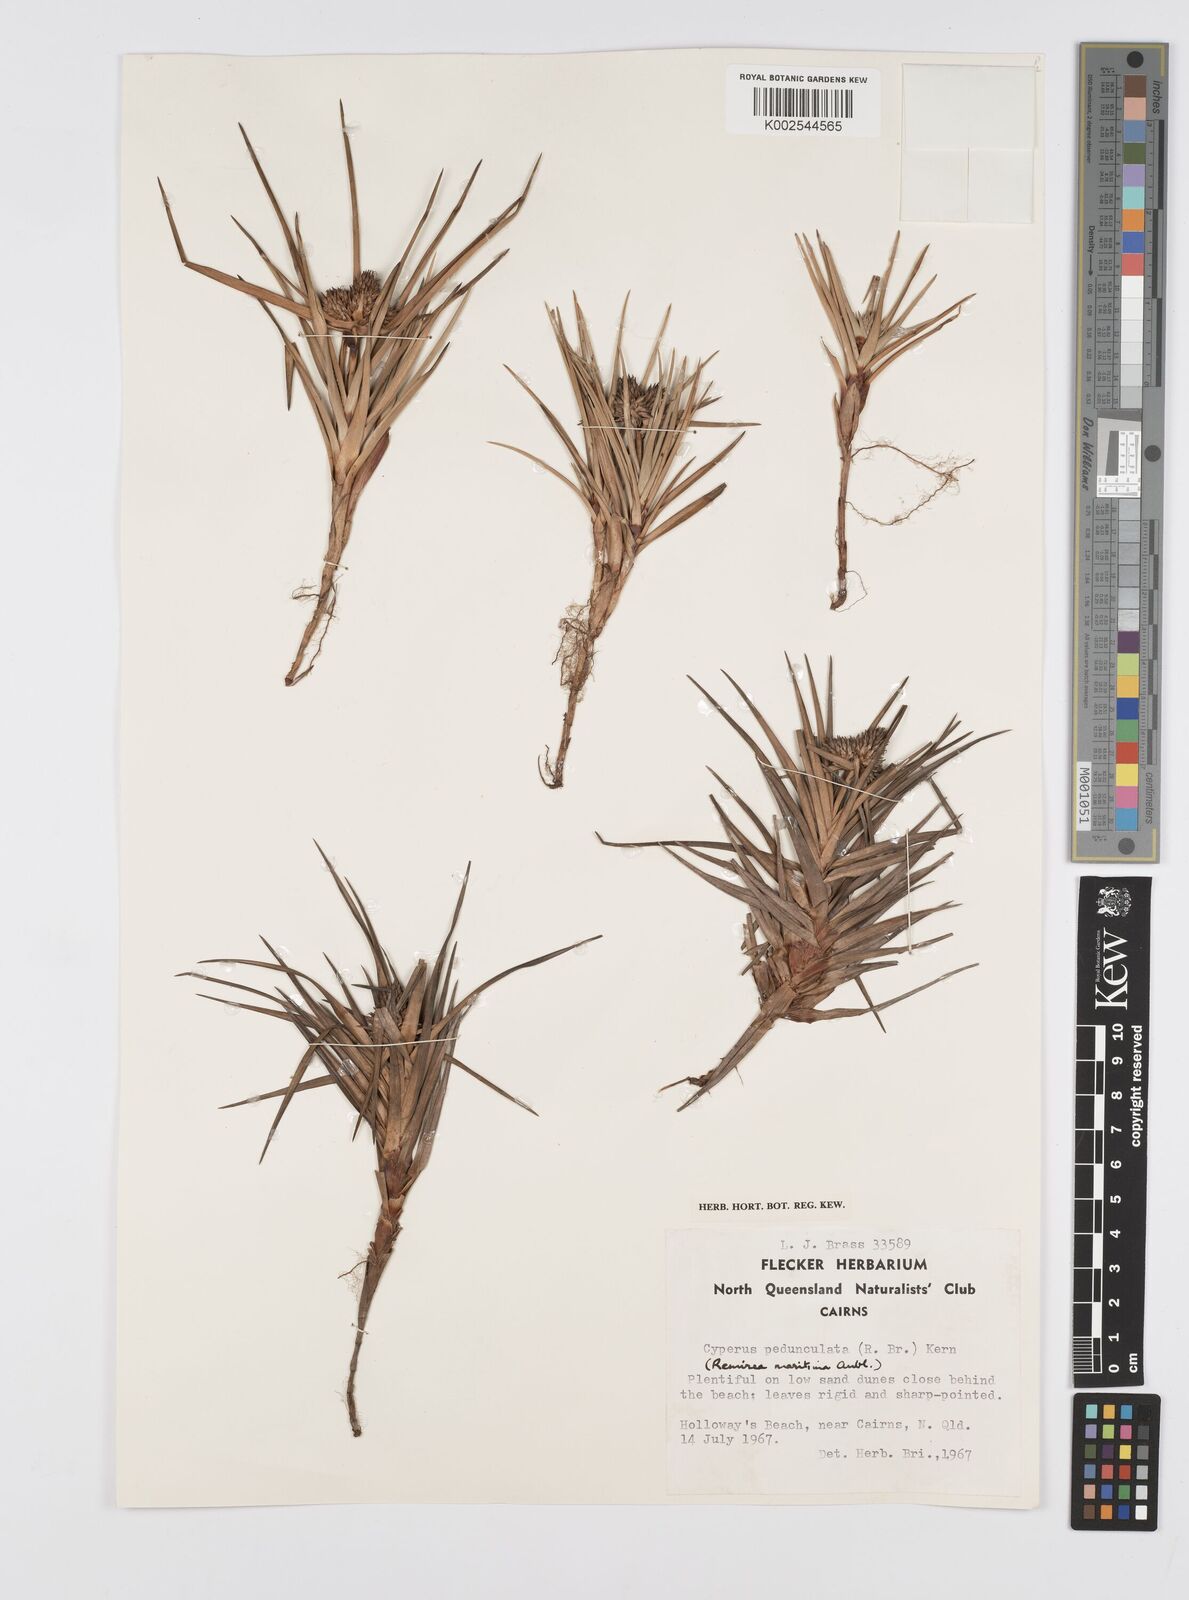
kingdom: Plantae
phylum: Tracheophyta
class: Liliopsida
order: Poales
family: Cyperaceae
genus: Cyperus
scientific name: Cyperus
